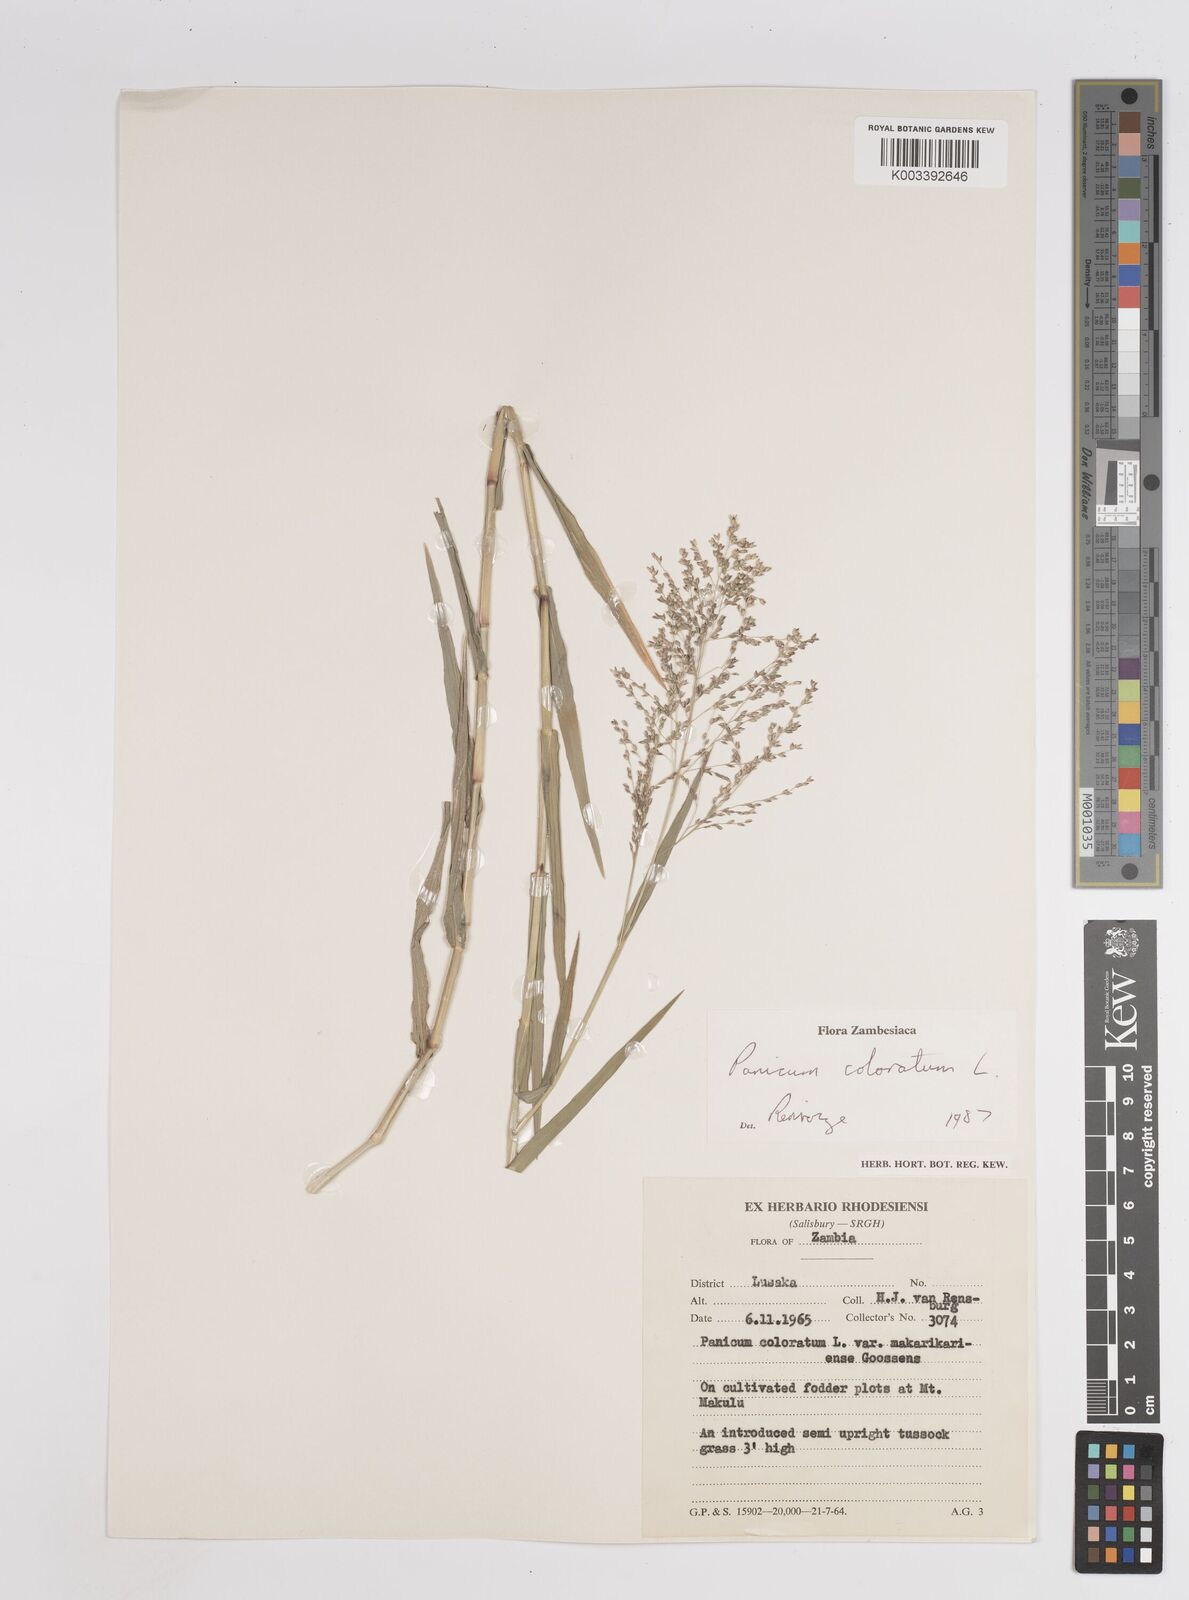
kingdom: Plantae
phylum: Tracheophyta
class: Liliopsida
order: Poales
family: Poaceae
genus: Panicum
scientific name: Panicum
